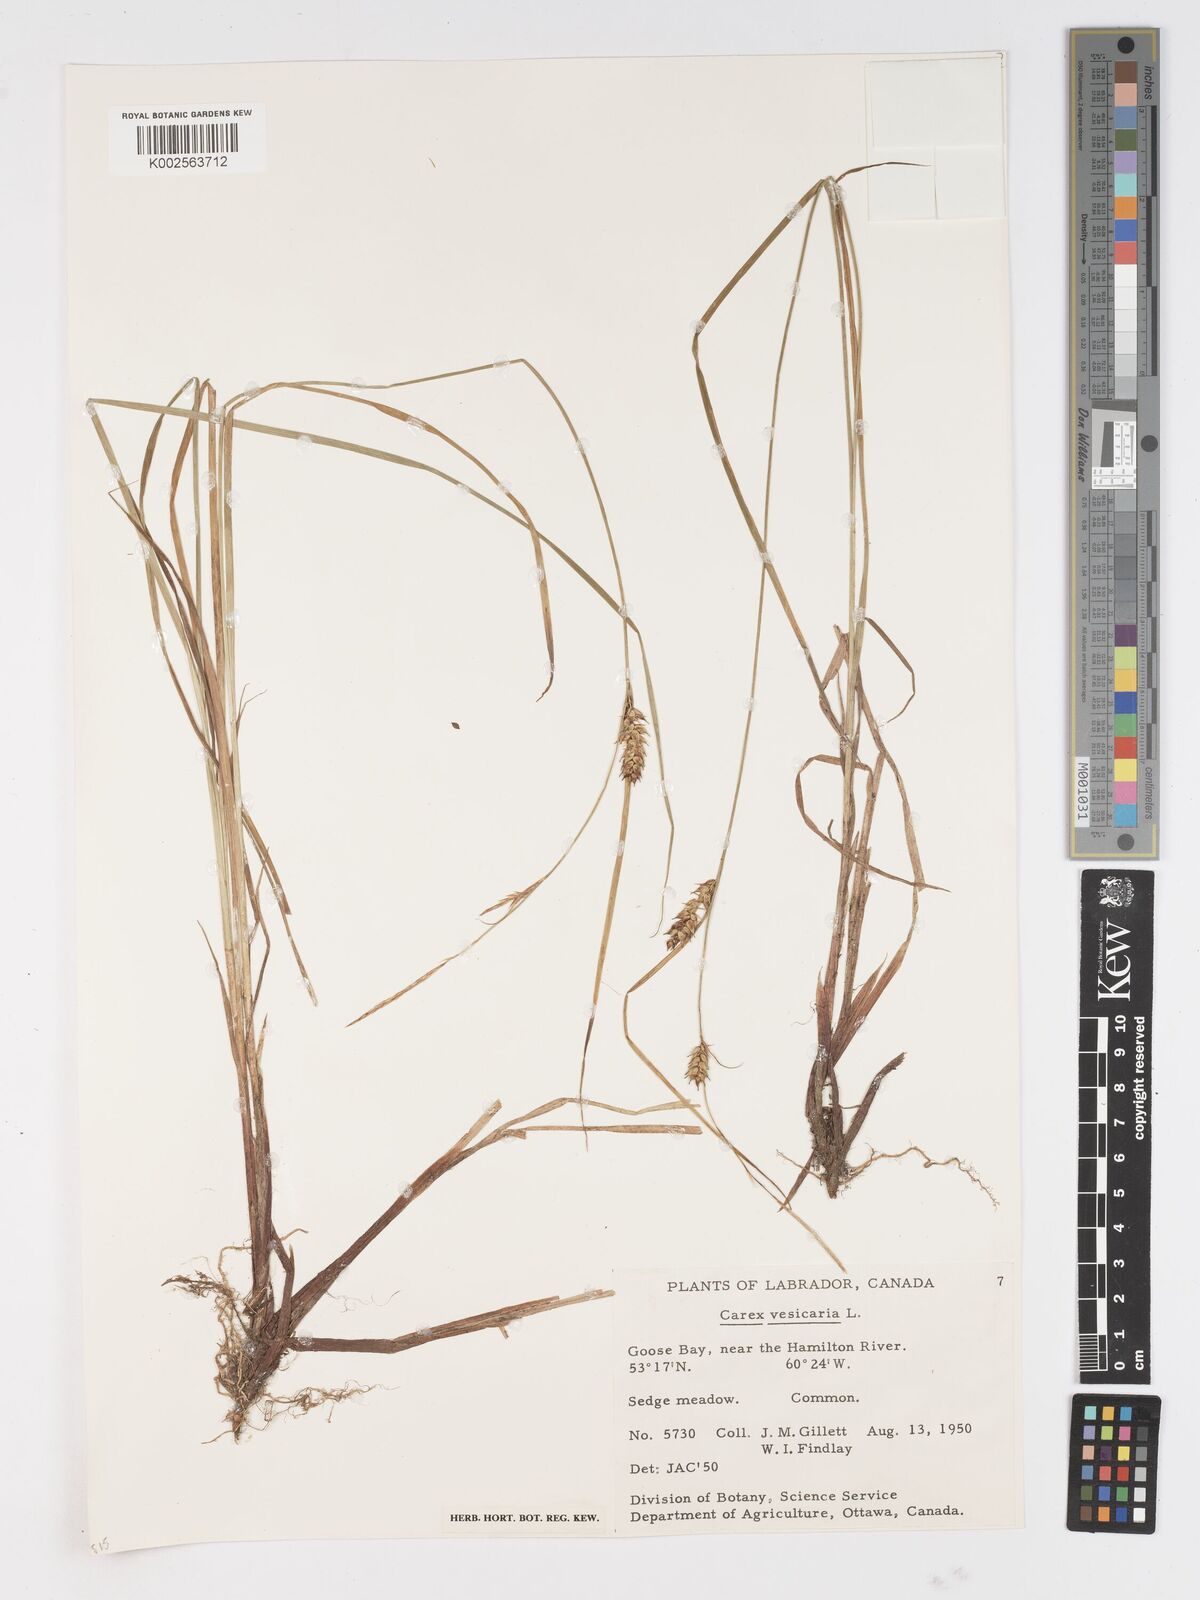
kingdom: Plantae
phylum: Tracheophyta
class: Liliopsida
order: Poales
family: Cyperaceae
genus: Carex
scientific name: Carex vesicaria
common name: Bladder-sedge
